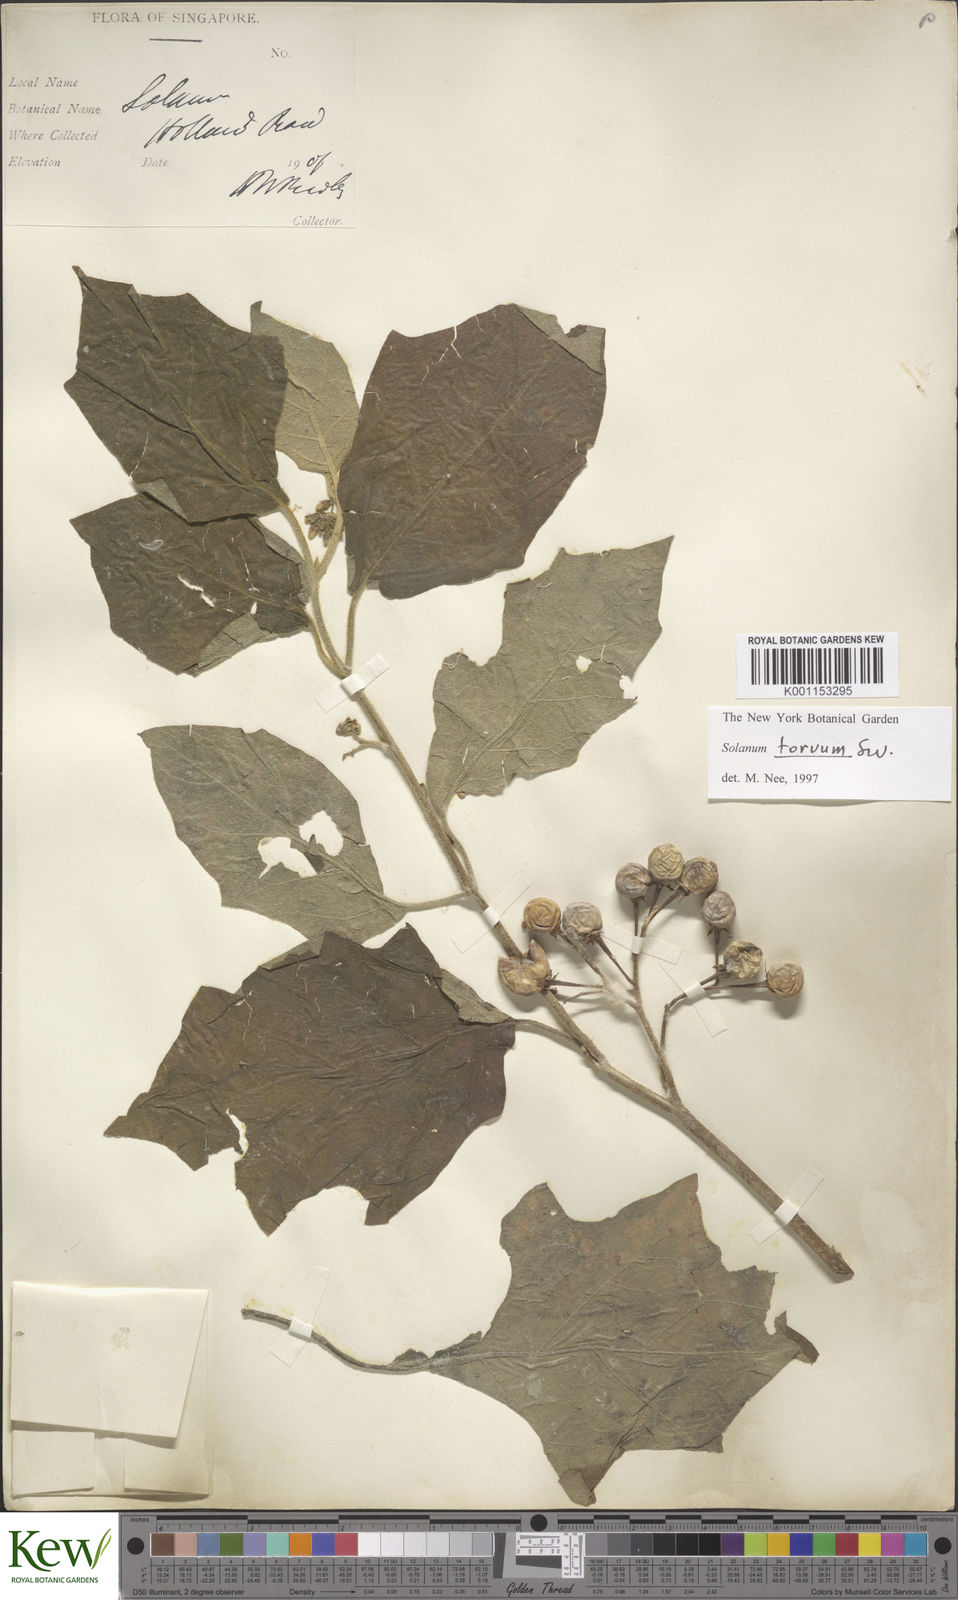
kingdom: Plantae
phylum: Tracheophyta
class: Magnoliopsida
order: Solanales
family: Solanaceae
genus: Solanum
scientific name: Solanum torvum
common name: Turkey berry
